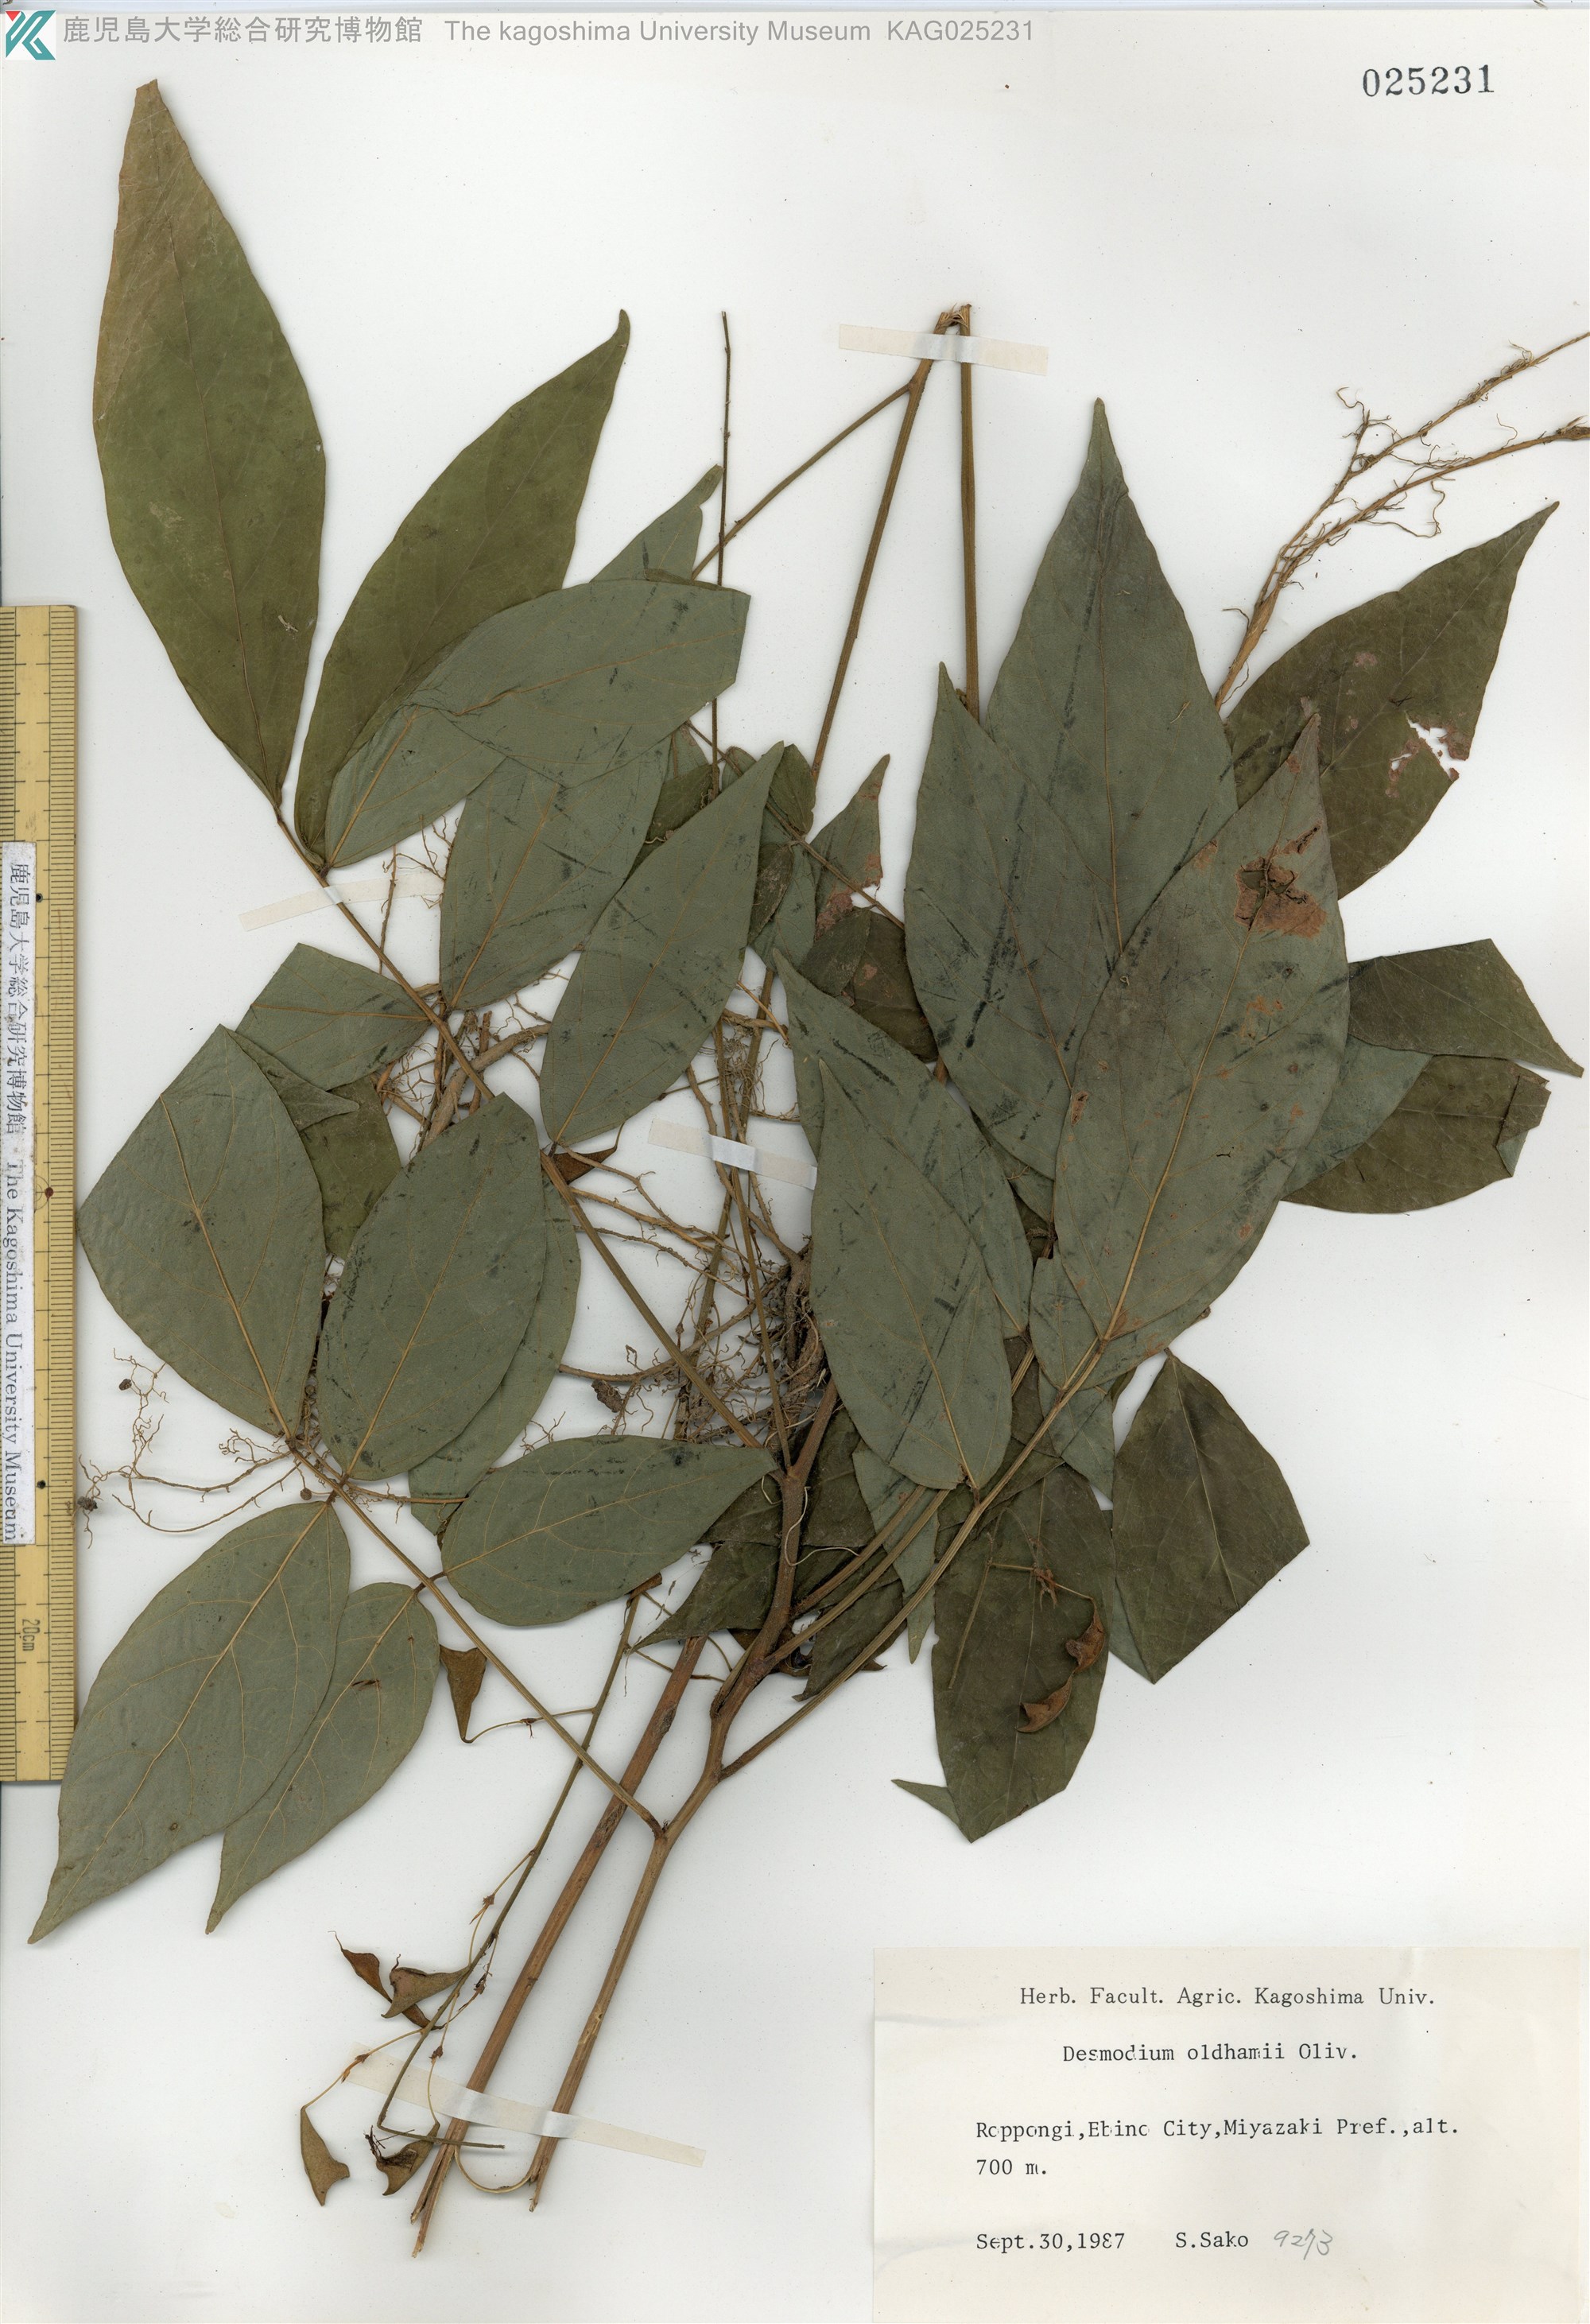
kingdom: Plantae
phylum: Tracheophyta
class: Magnoliopsida
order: Fabales
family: Fabaceae
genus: Hylodesmum
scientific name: Hylodesmum oldhamii
